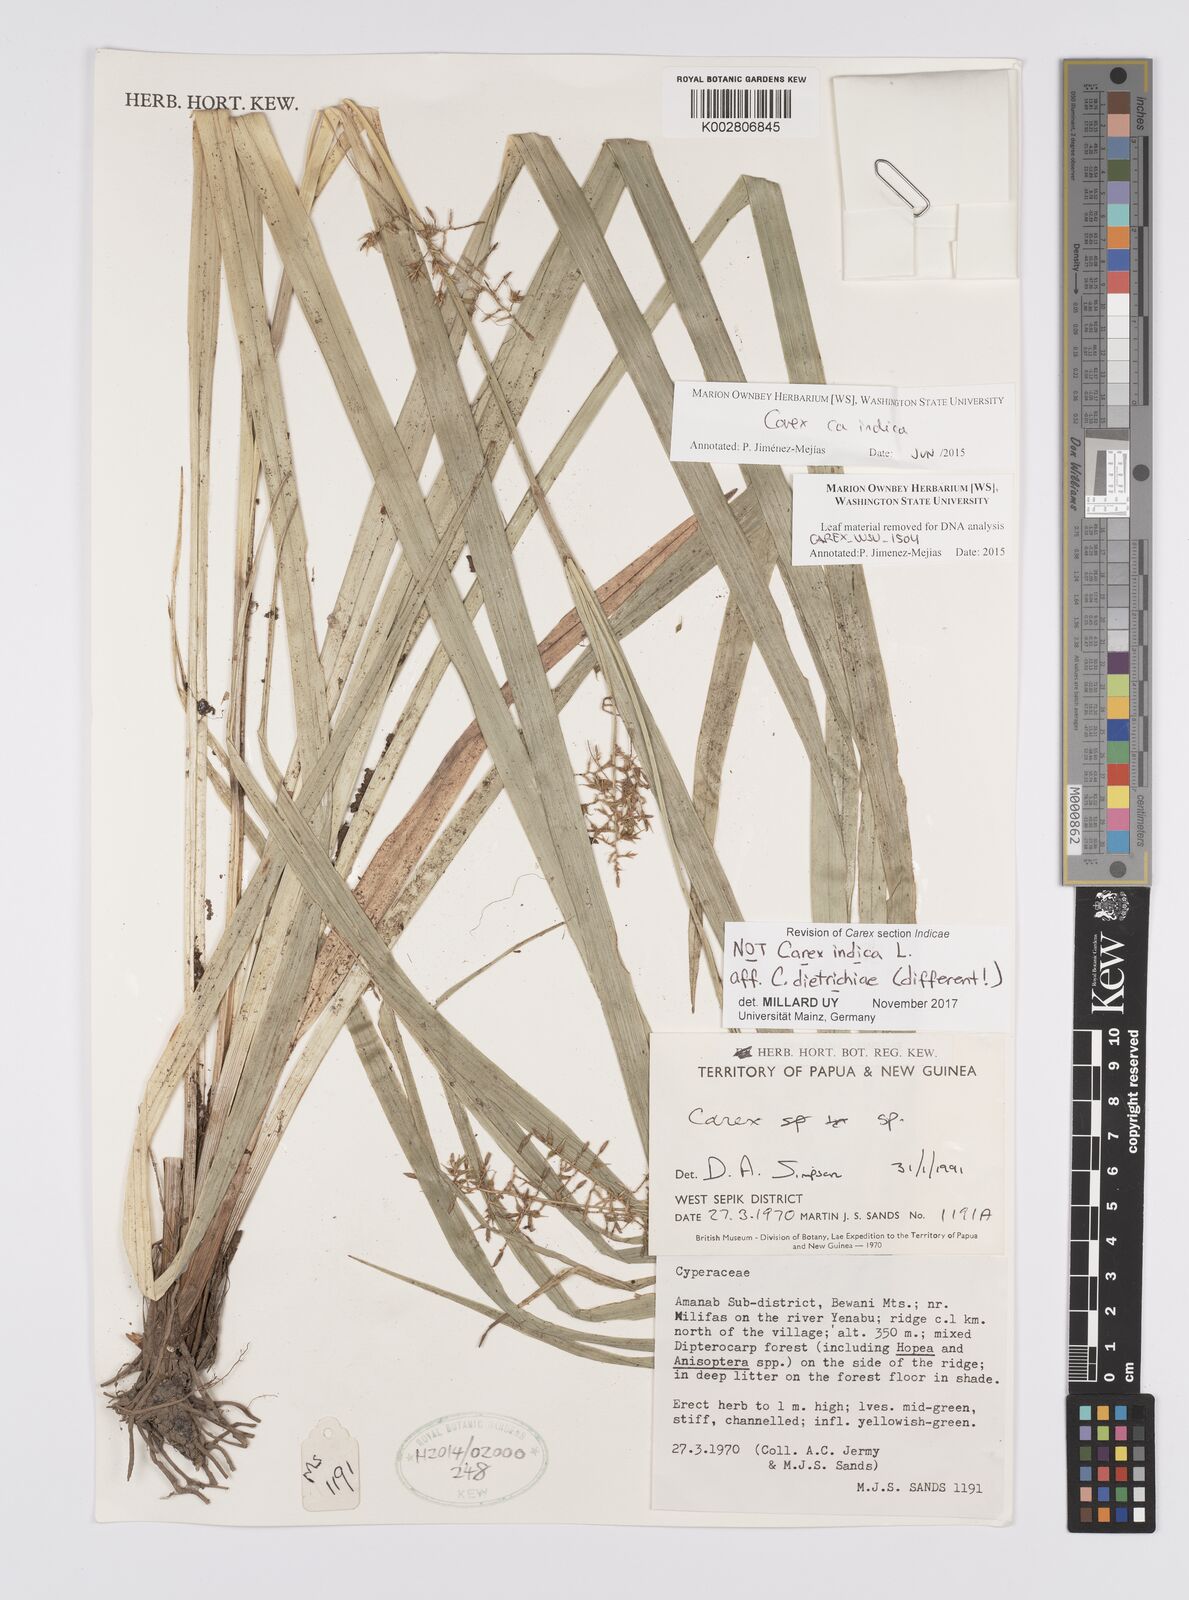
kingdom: Plantae
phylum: Tracheophyta
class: Liliopsida
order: Poales
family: Cyperaceae
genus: Carex
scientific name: Carex indica
